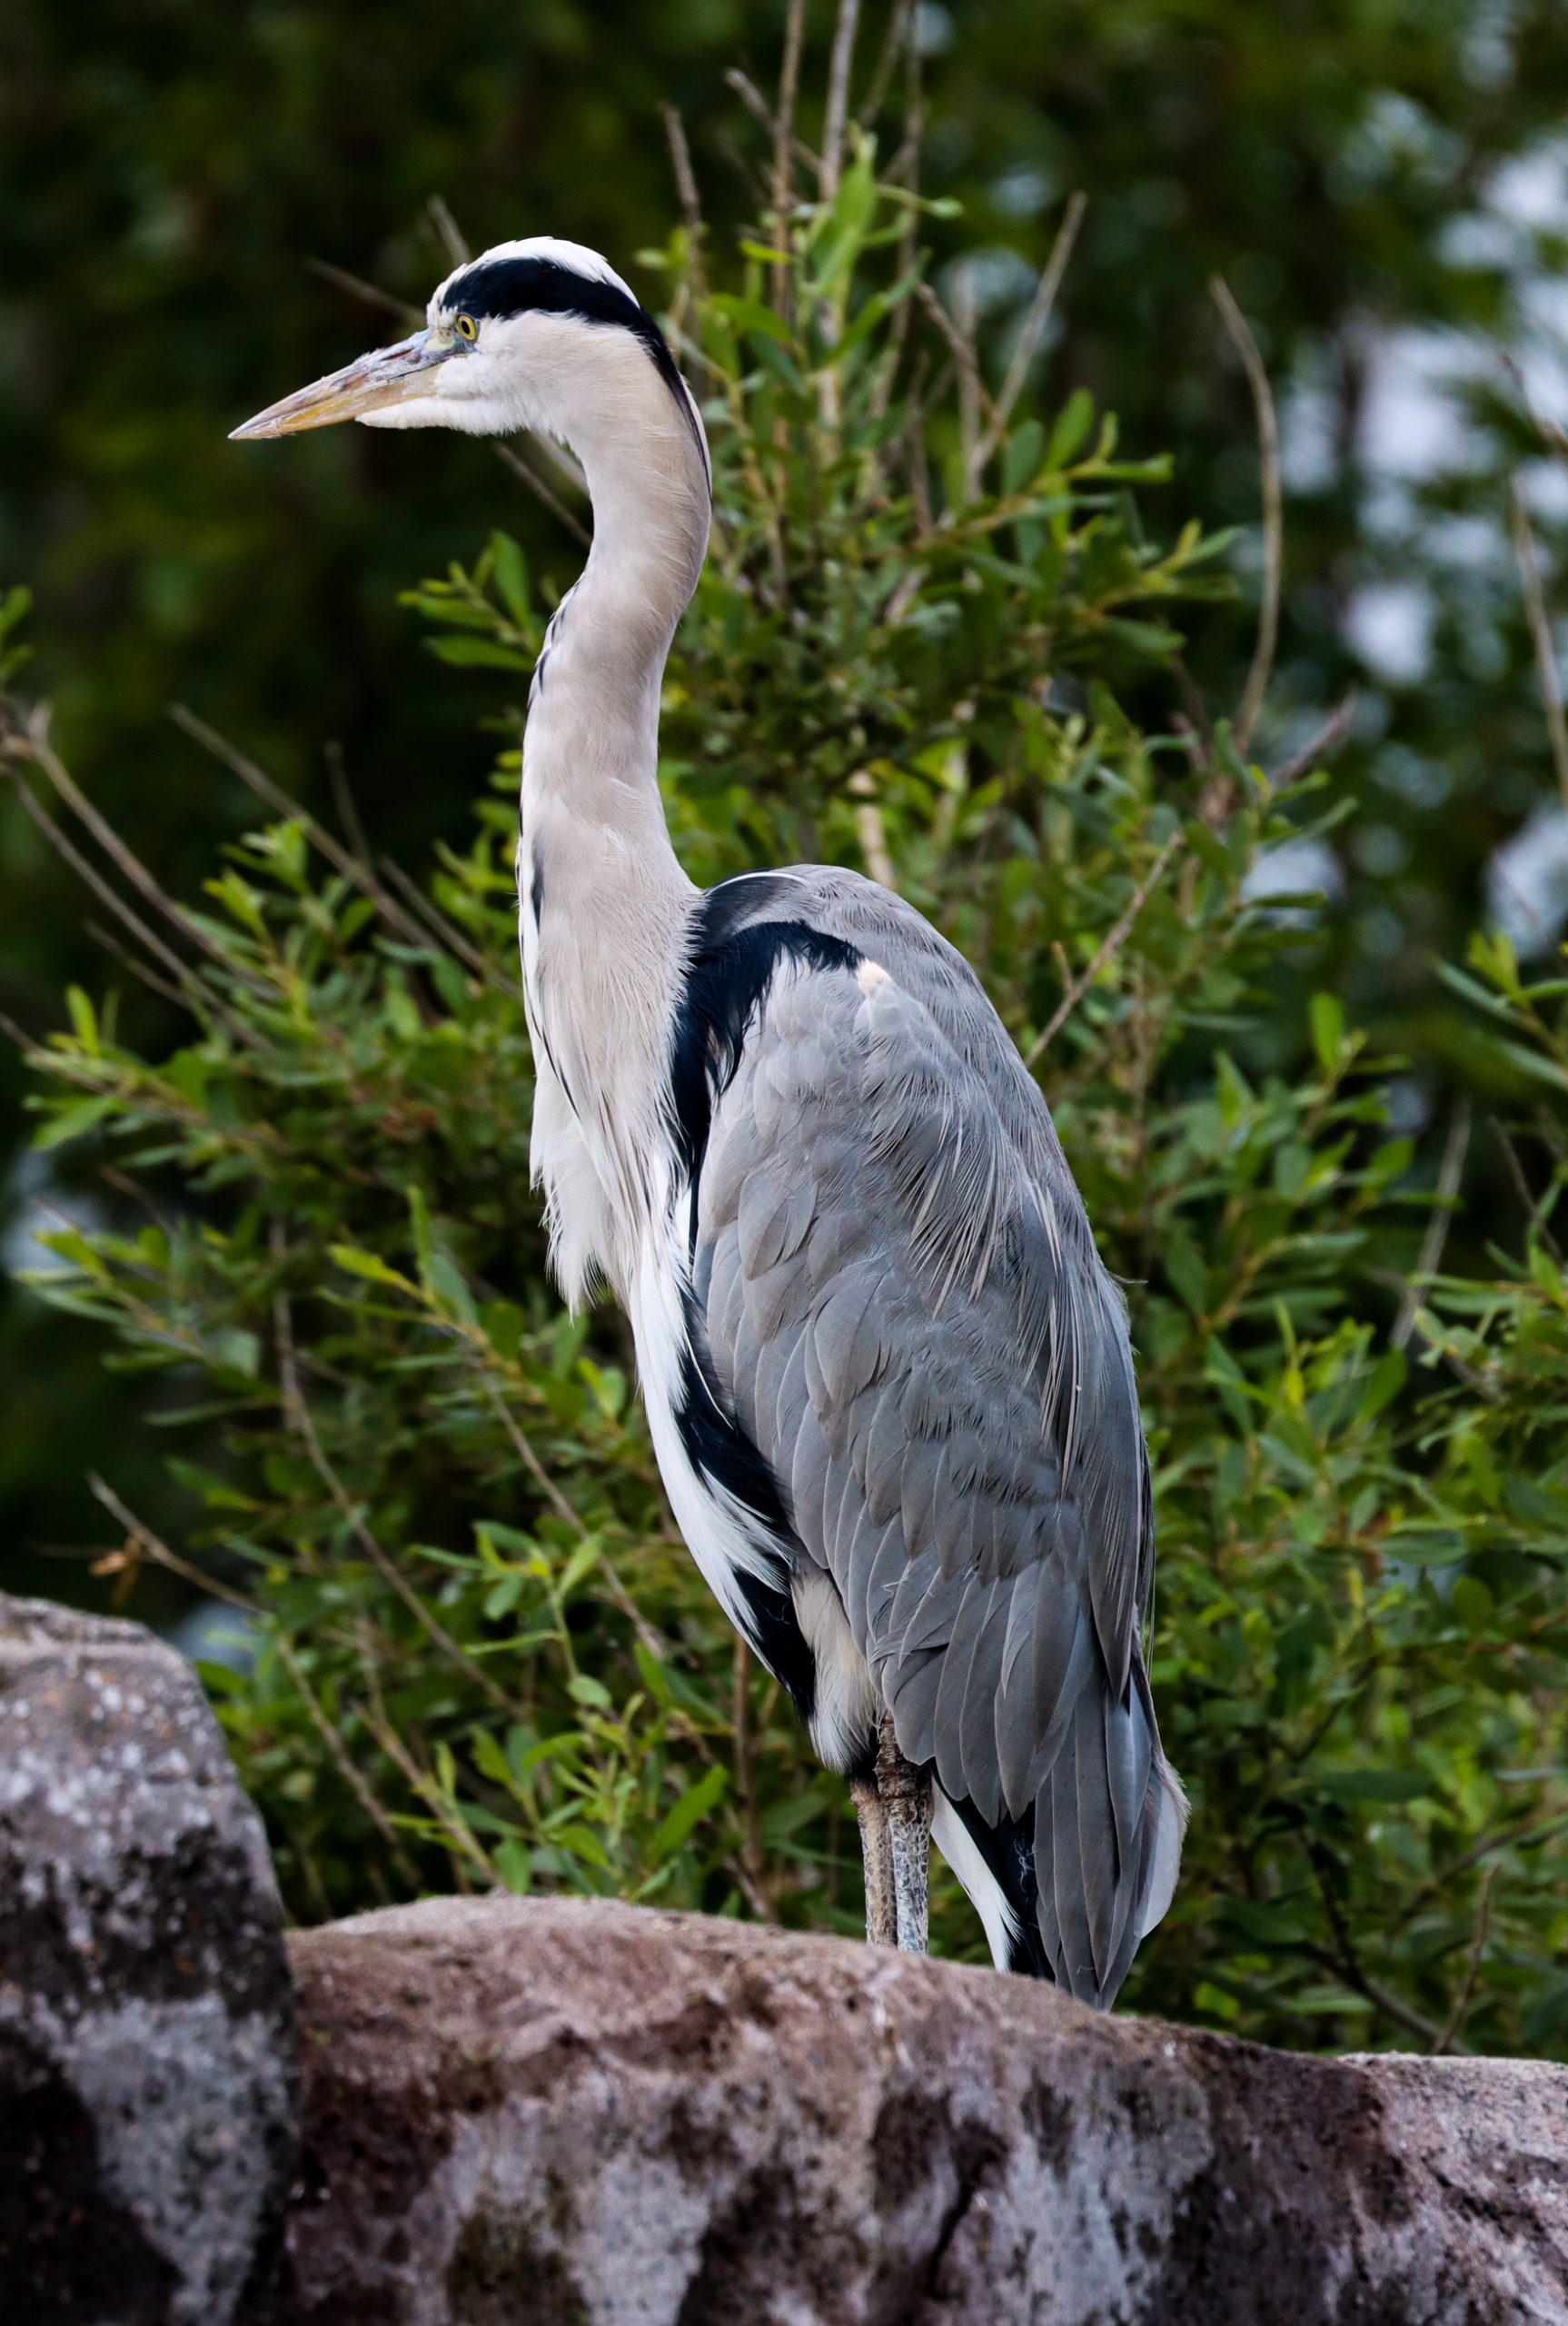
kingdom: Animalia
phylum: Chordata
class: Aves
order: Pelecaniformes
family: Ardeidae
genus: Ardea
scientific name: Ardea cinerea
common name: Fiskehejre
